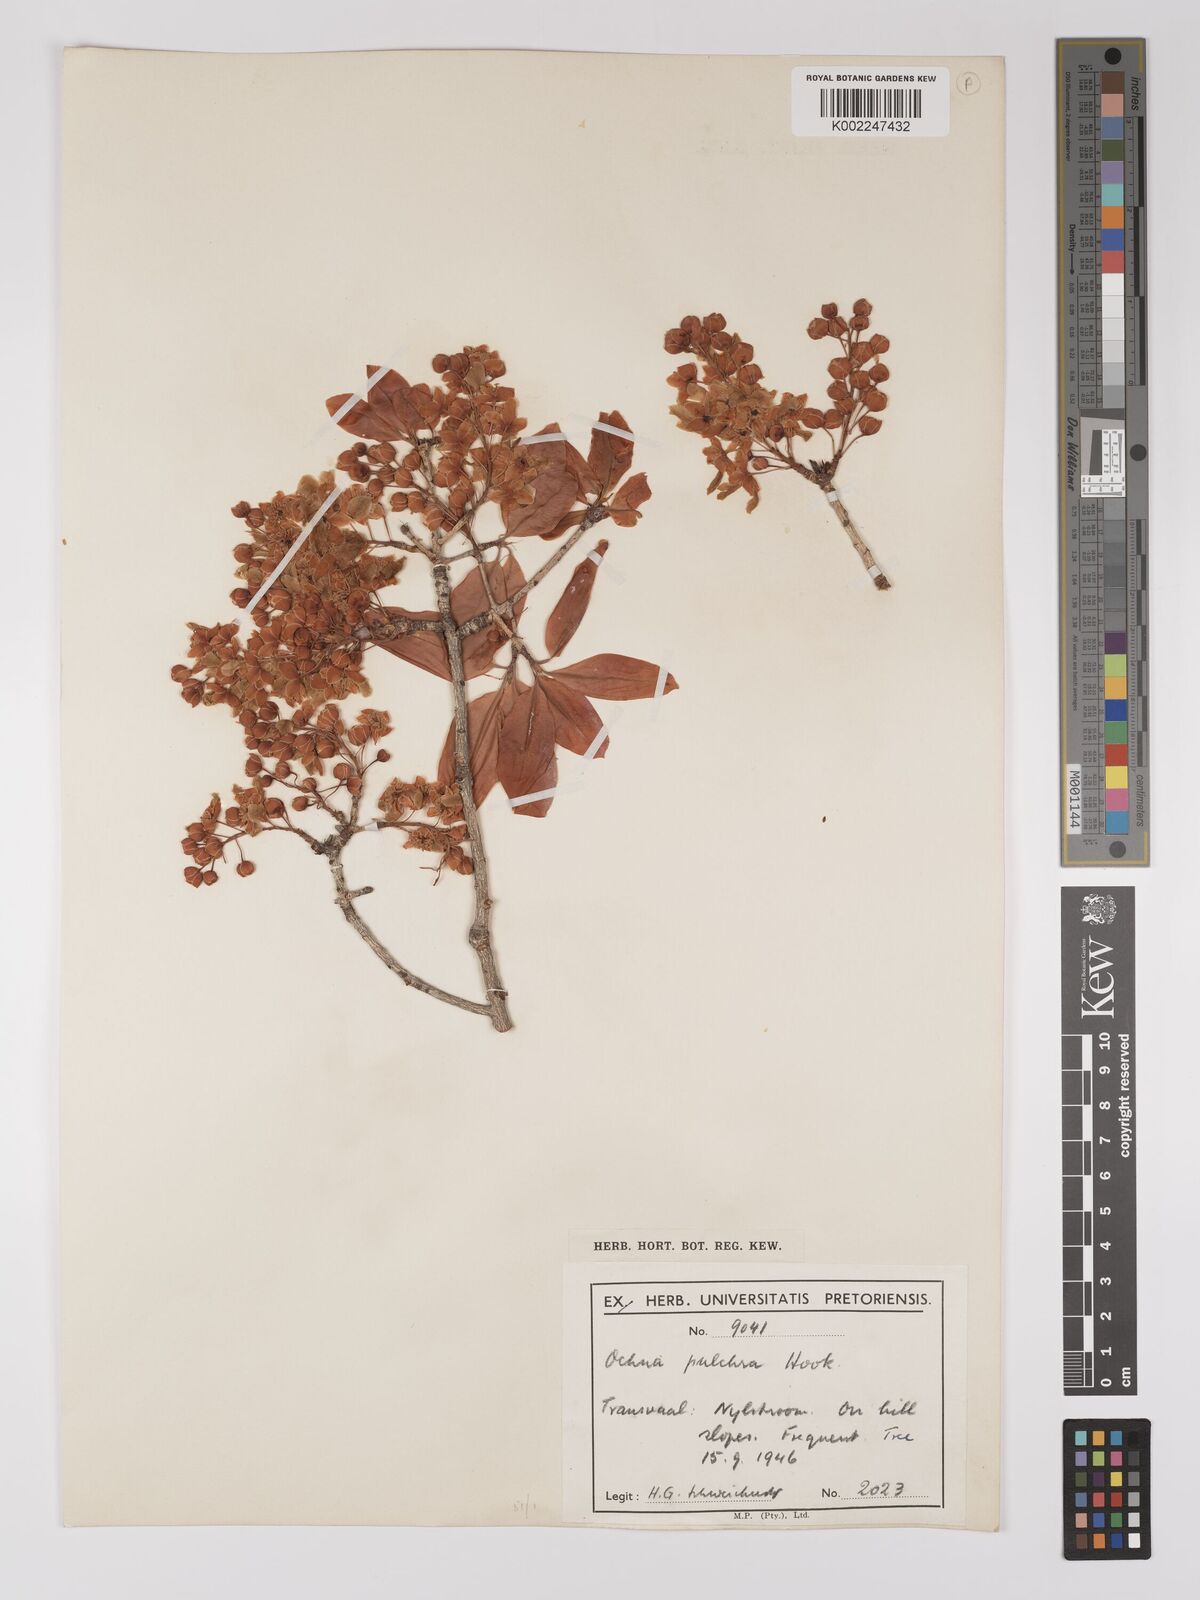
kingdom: Plantae
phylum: Tracheophyta
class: Magnoliopsida
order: Malpighiales
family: Ochnaceae
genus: Ochna
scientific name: Ochna pulchra
